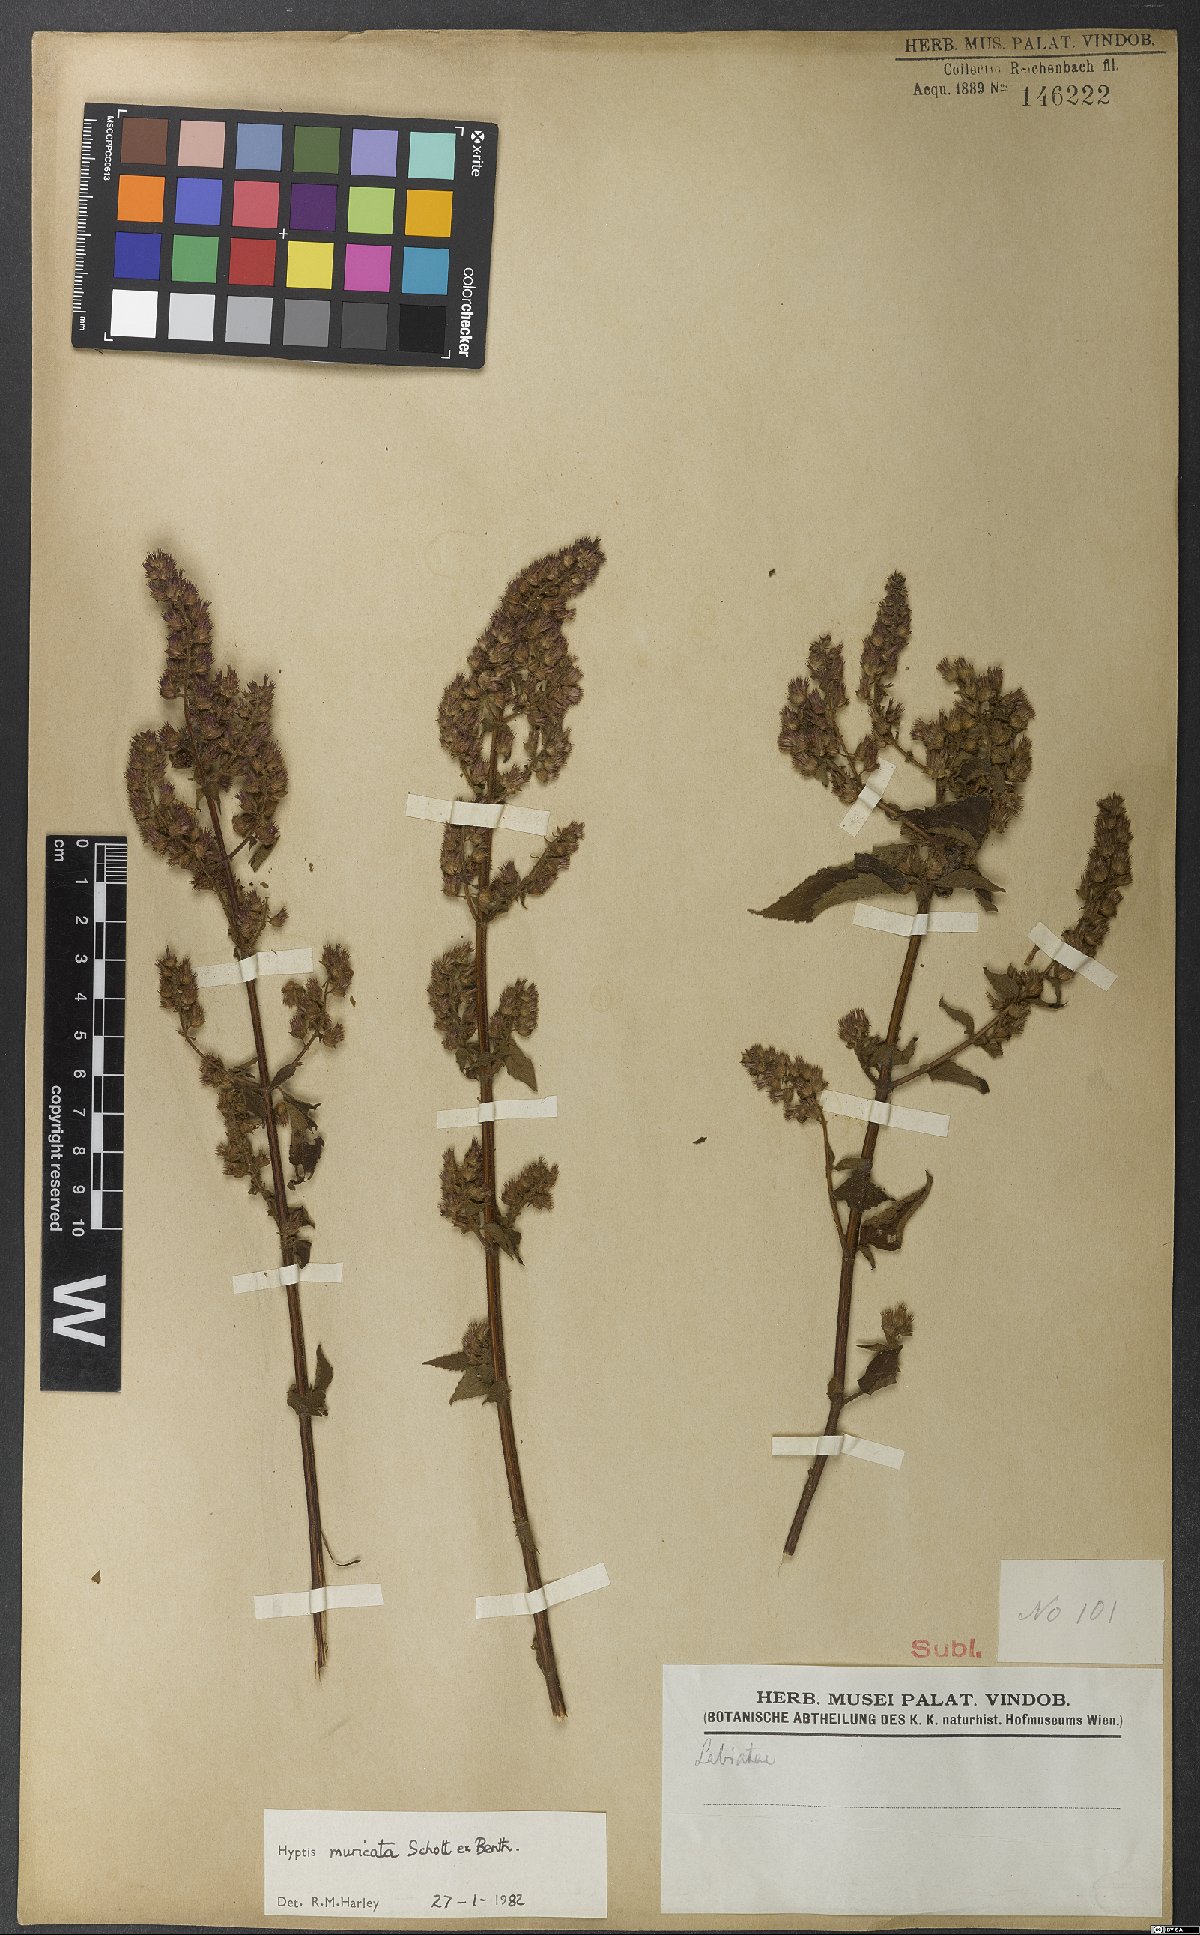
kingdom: Plantae
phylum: Tracheophyta
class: Magnoliopsida
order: Lamiales
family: Lamiaceae
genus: Cantinoa
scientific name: Cantinoa muricata
